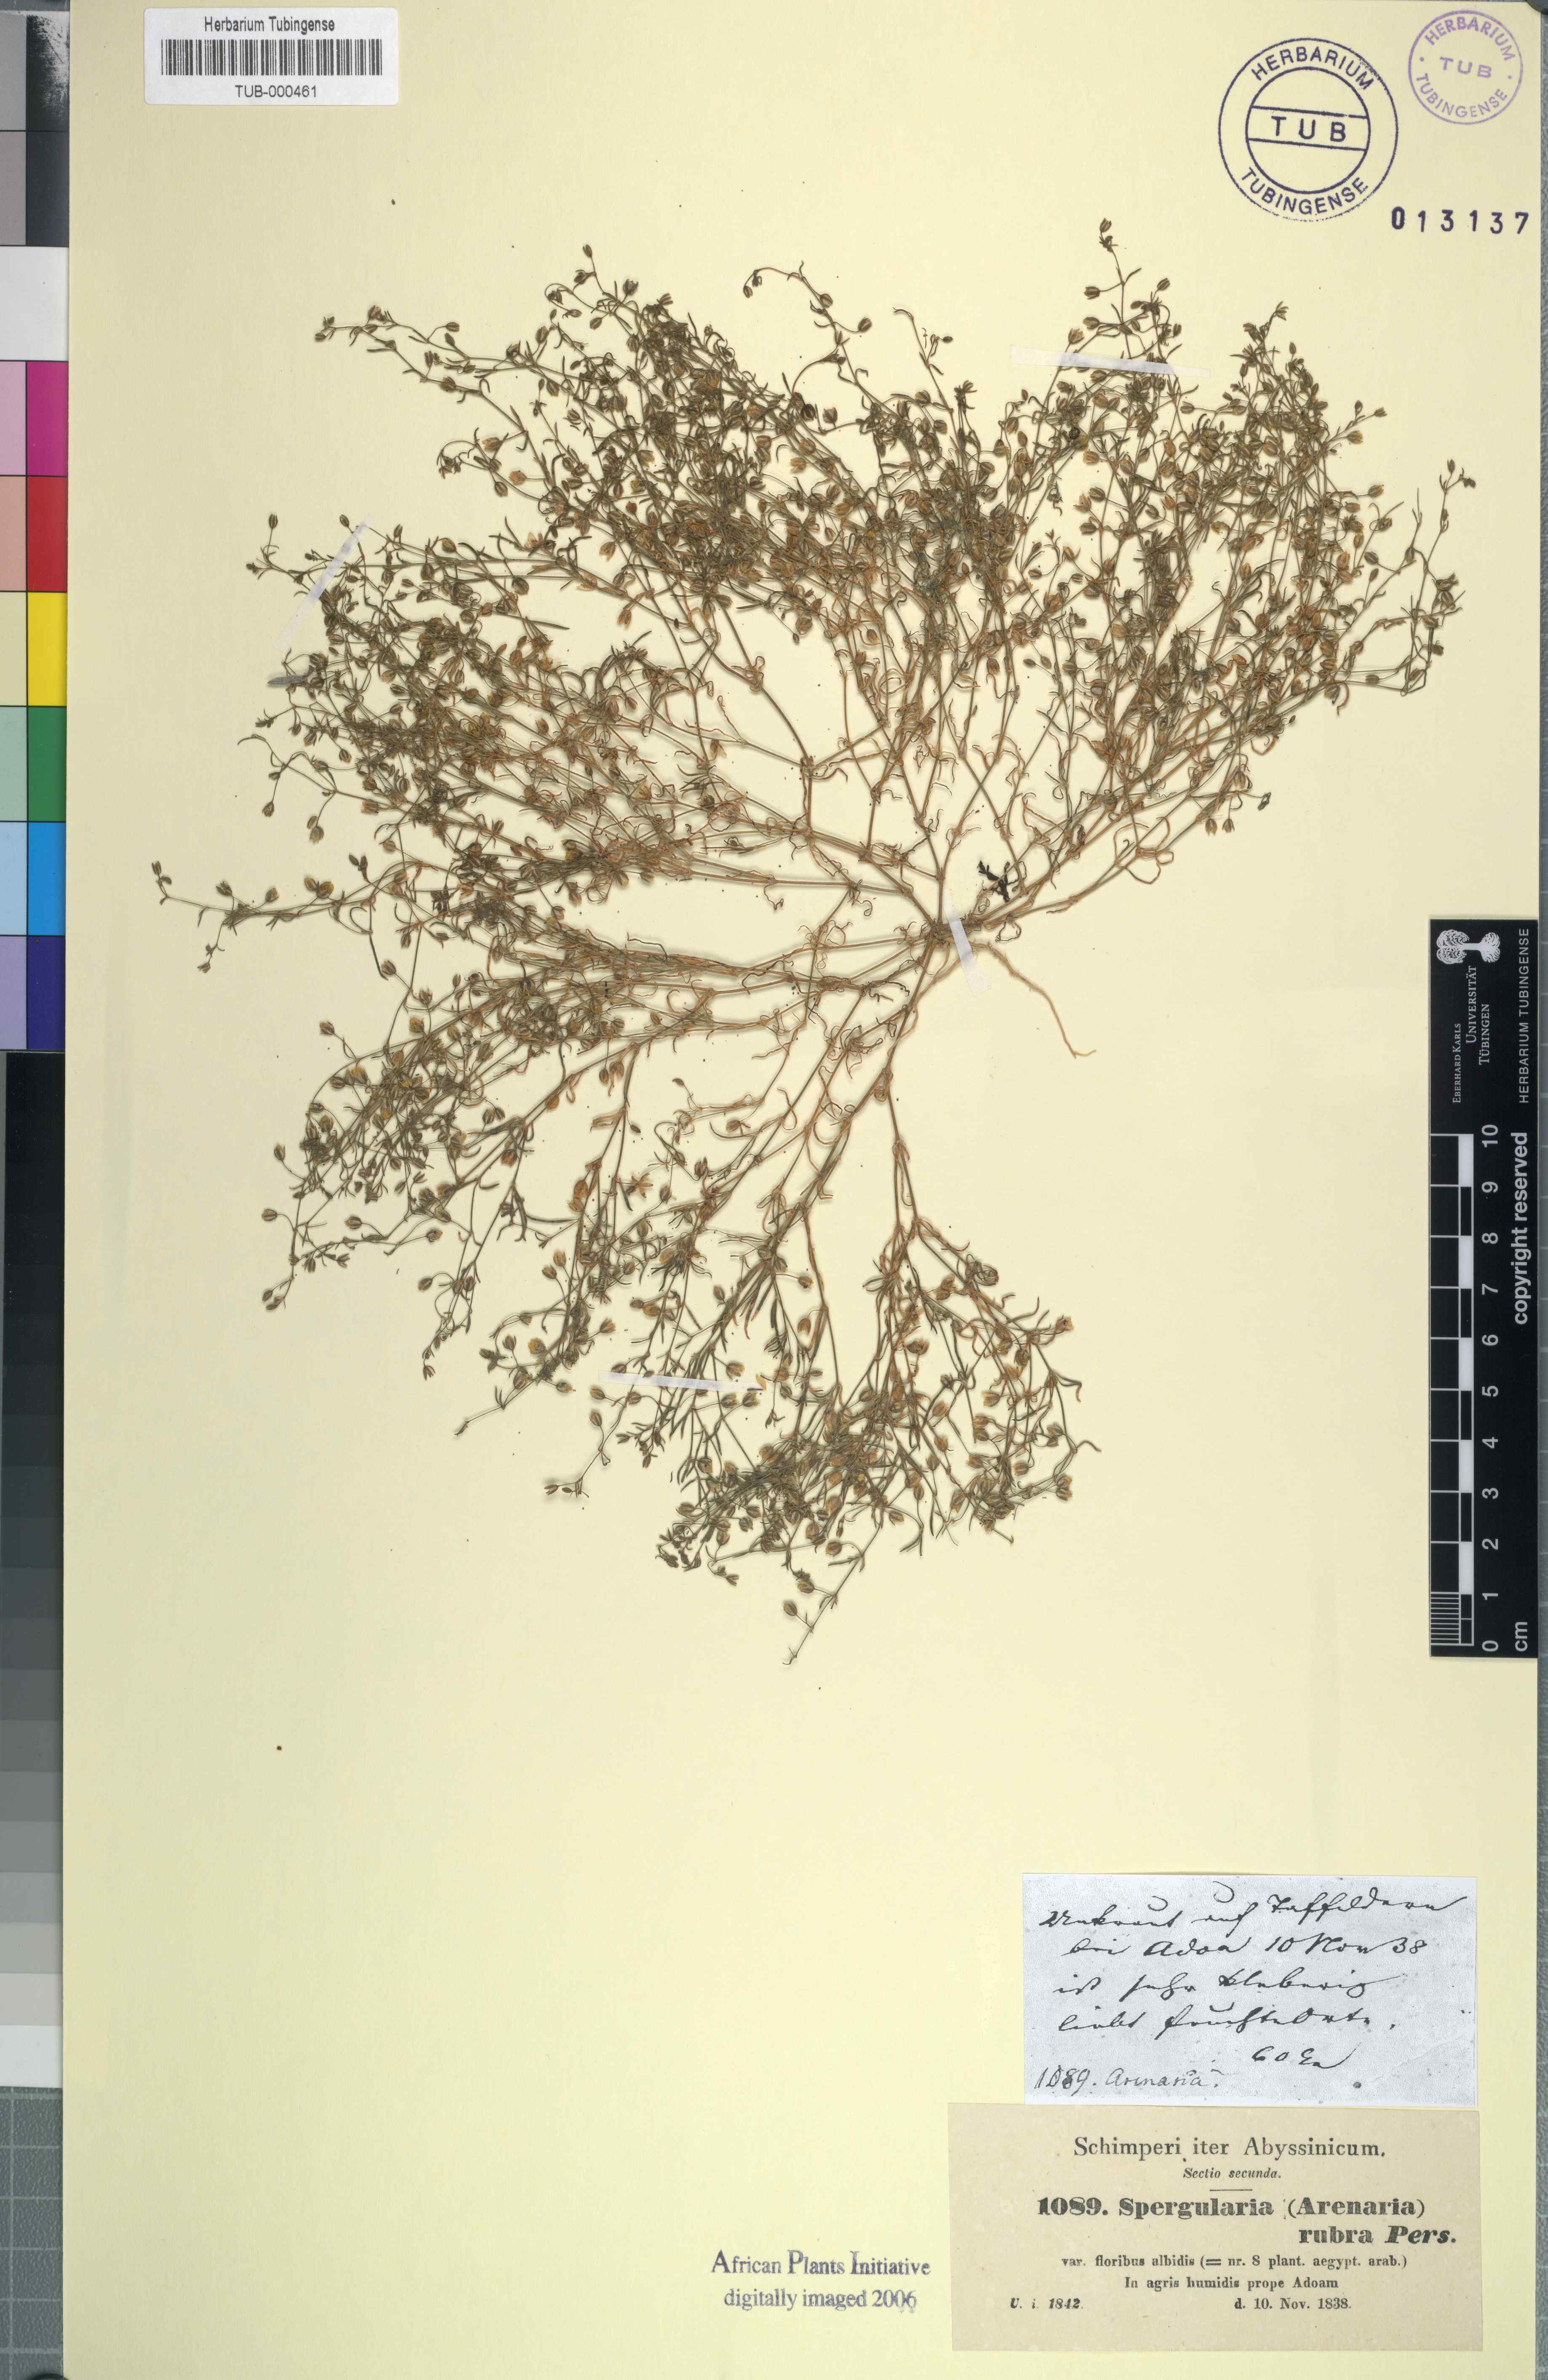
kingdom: Plantae
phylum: Tracheophyta
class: Magnoliopsida
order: Caryophyllales
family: Caryophyllaceae
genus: Spergularia
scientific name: Spergularia rubra
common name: Red sand-spurrey
